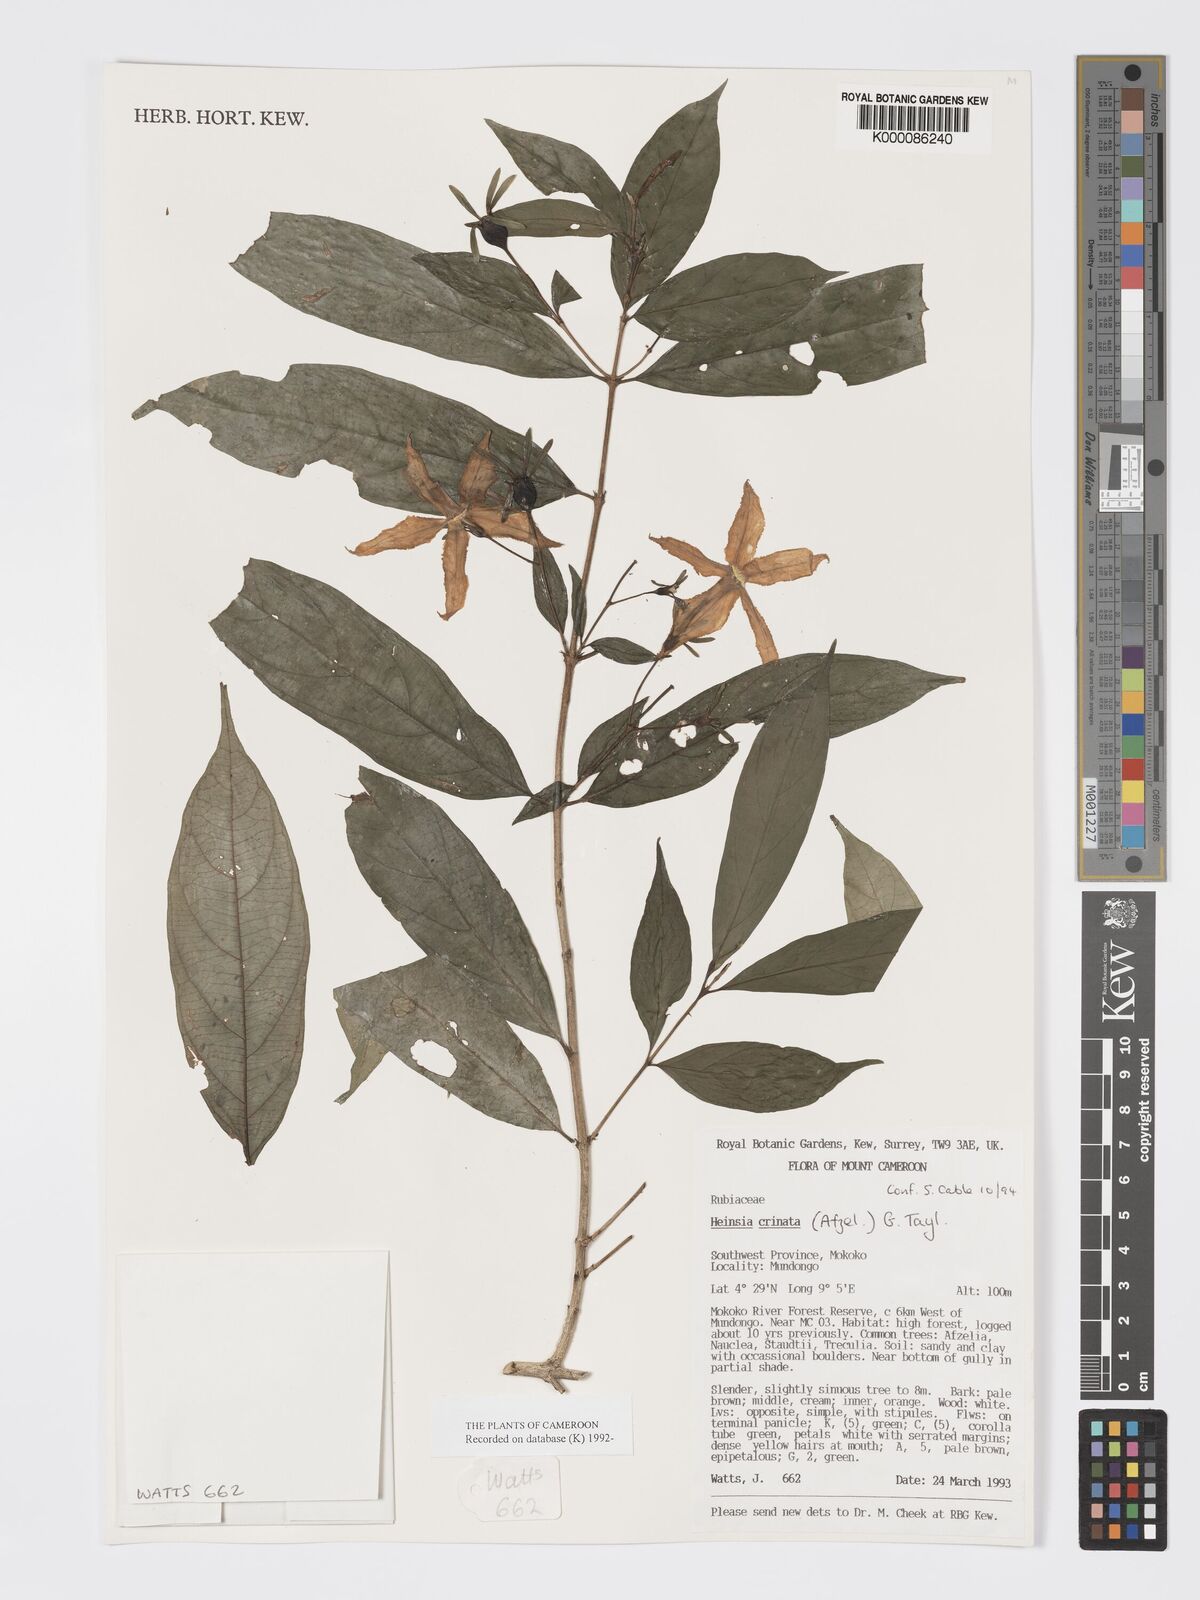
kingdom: Plantae
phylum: Tracheophyta
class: Magnoliopsida
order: Gentianales
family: Rubiaceae
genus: Heinsia
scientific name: Heinsia crinita
